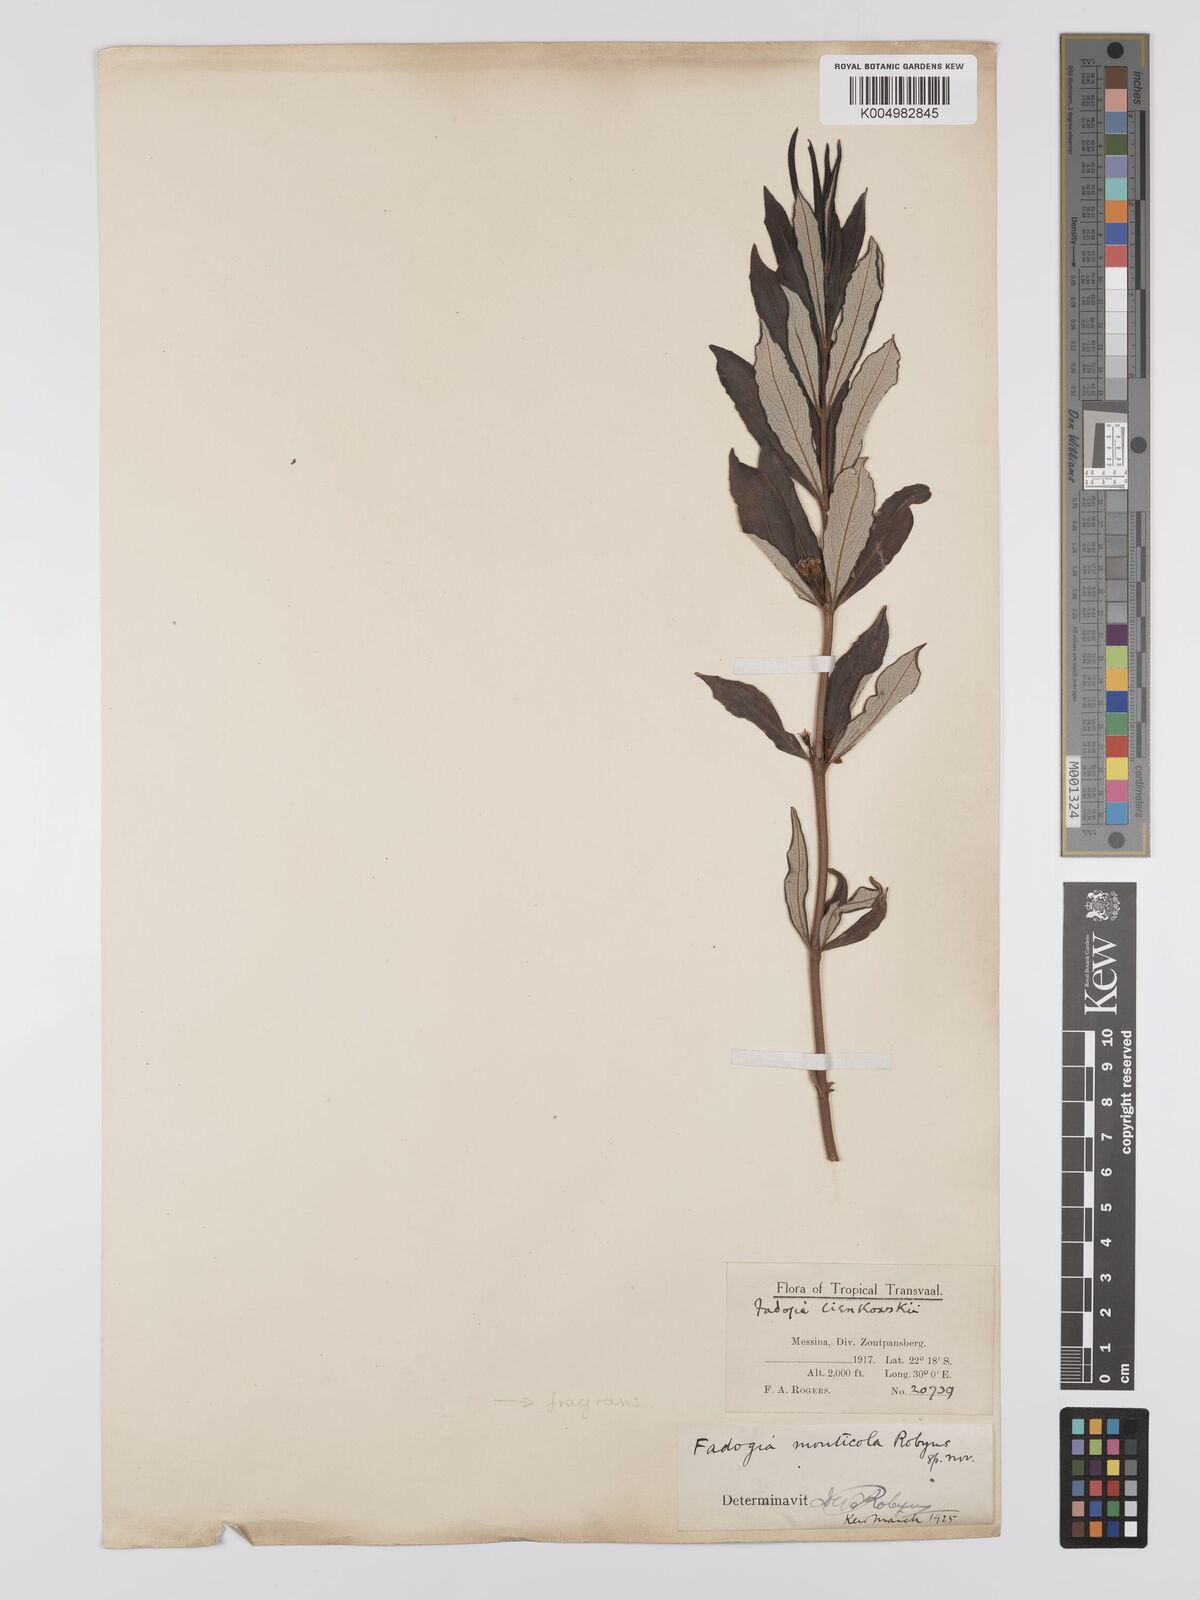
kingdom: Plantae
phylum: Tracheophyta
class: Magnoliopsida
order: Gentianales
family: Rubiaceae
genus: Fadogia
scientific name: Fadogia triphylla
